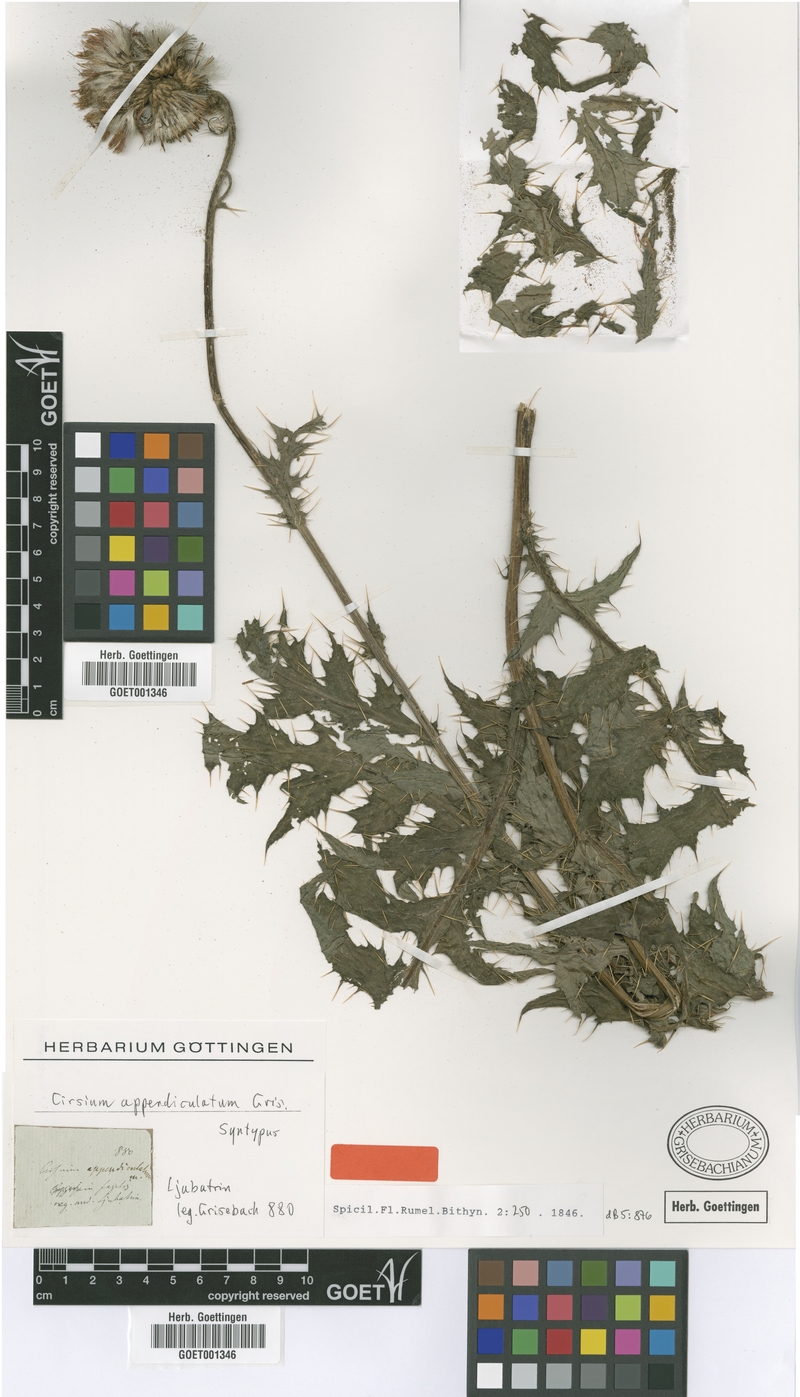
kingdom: Plantae
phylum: Tracheophyta
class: Magnoliopsida
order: Asterales
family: Asteraceae
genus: Cirsium
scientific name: Cirsium appendiculatum
